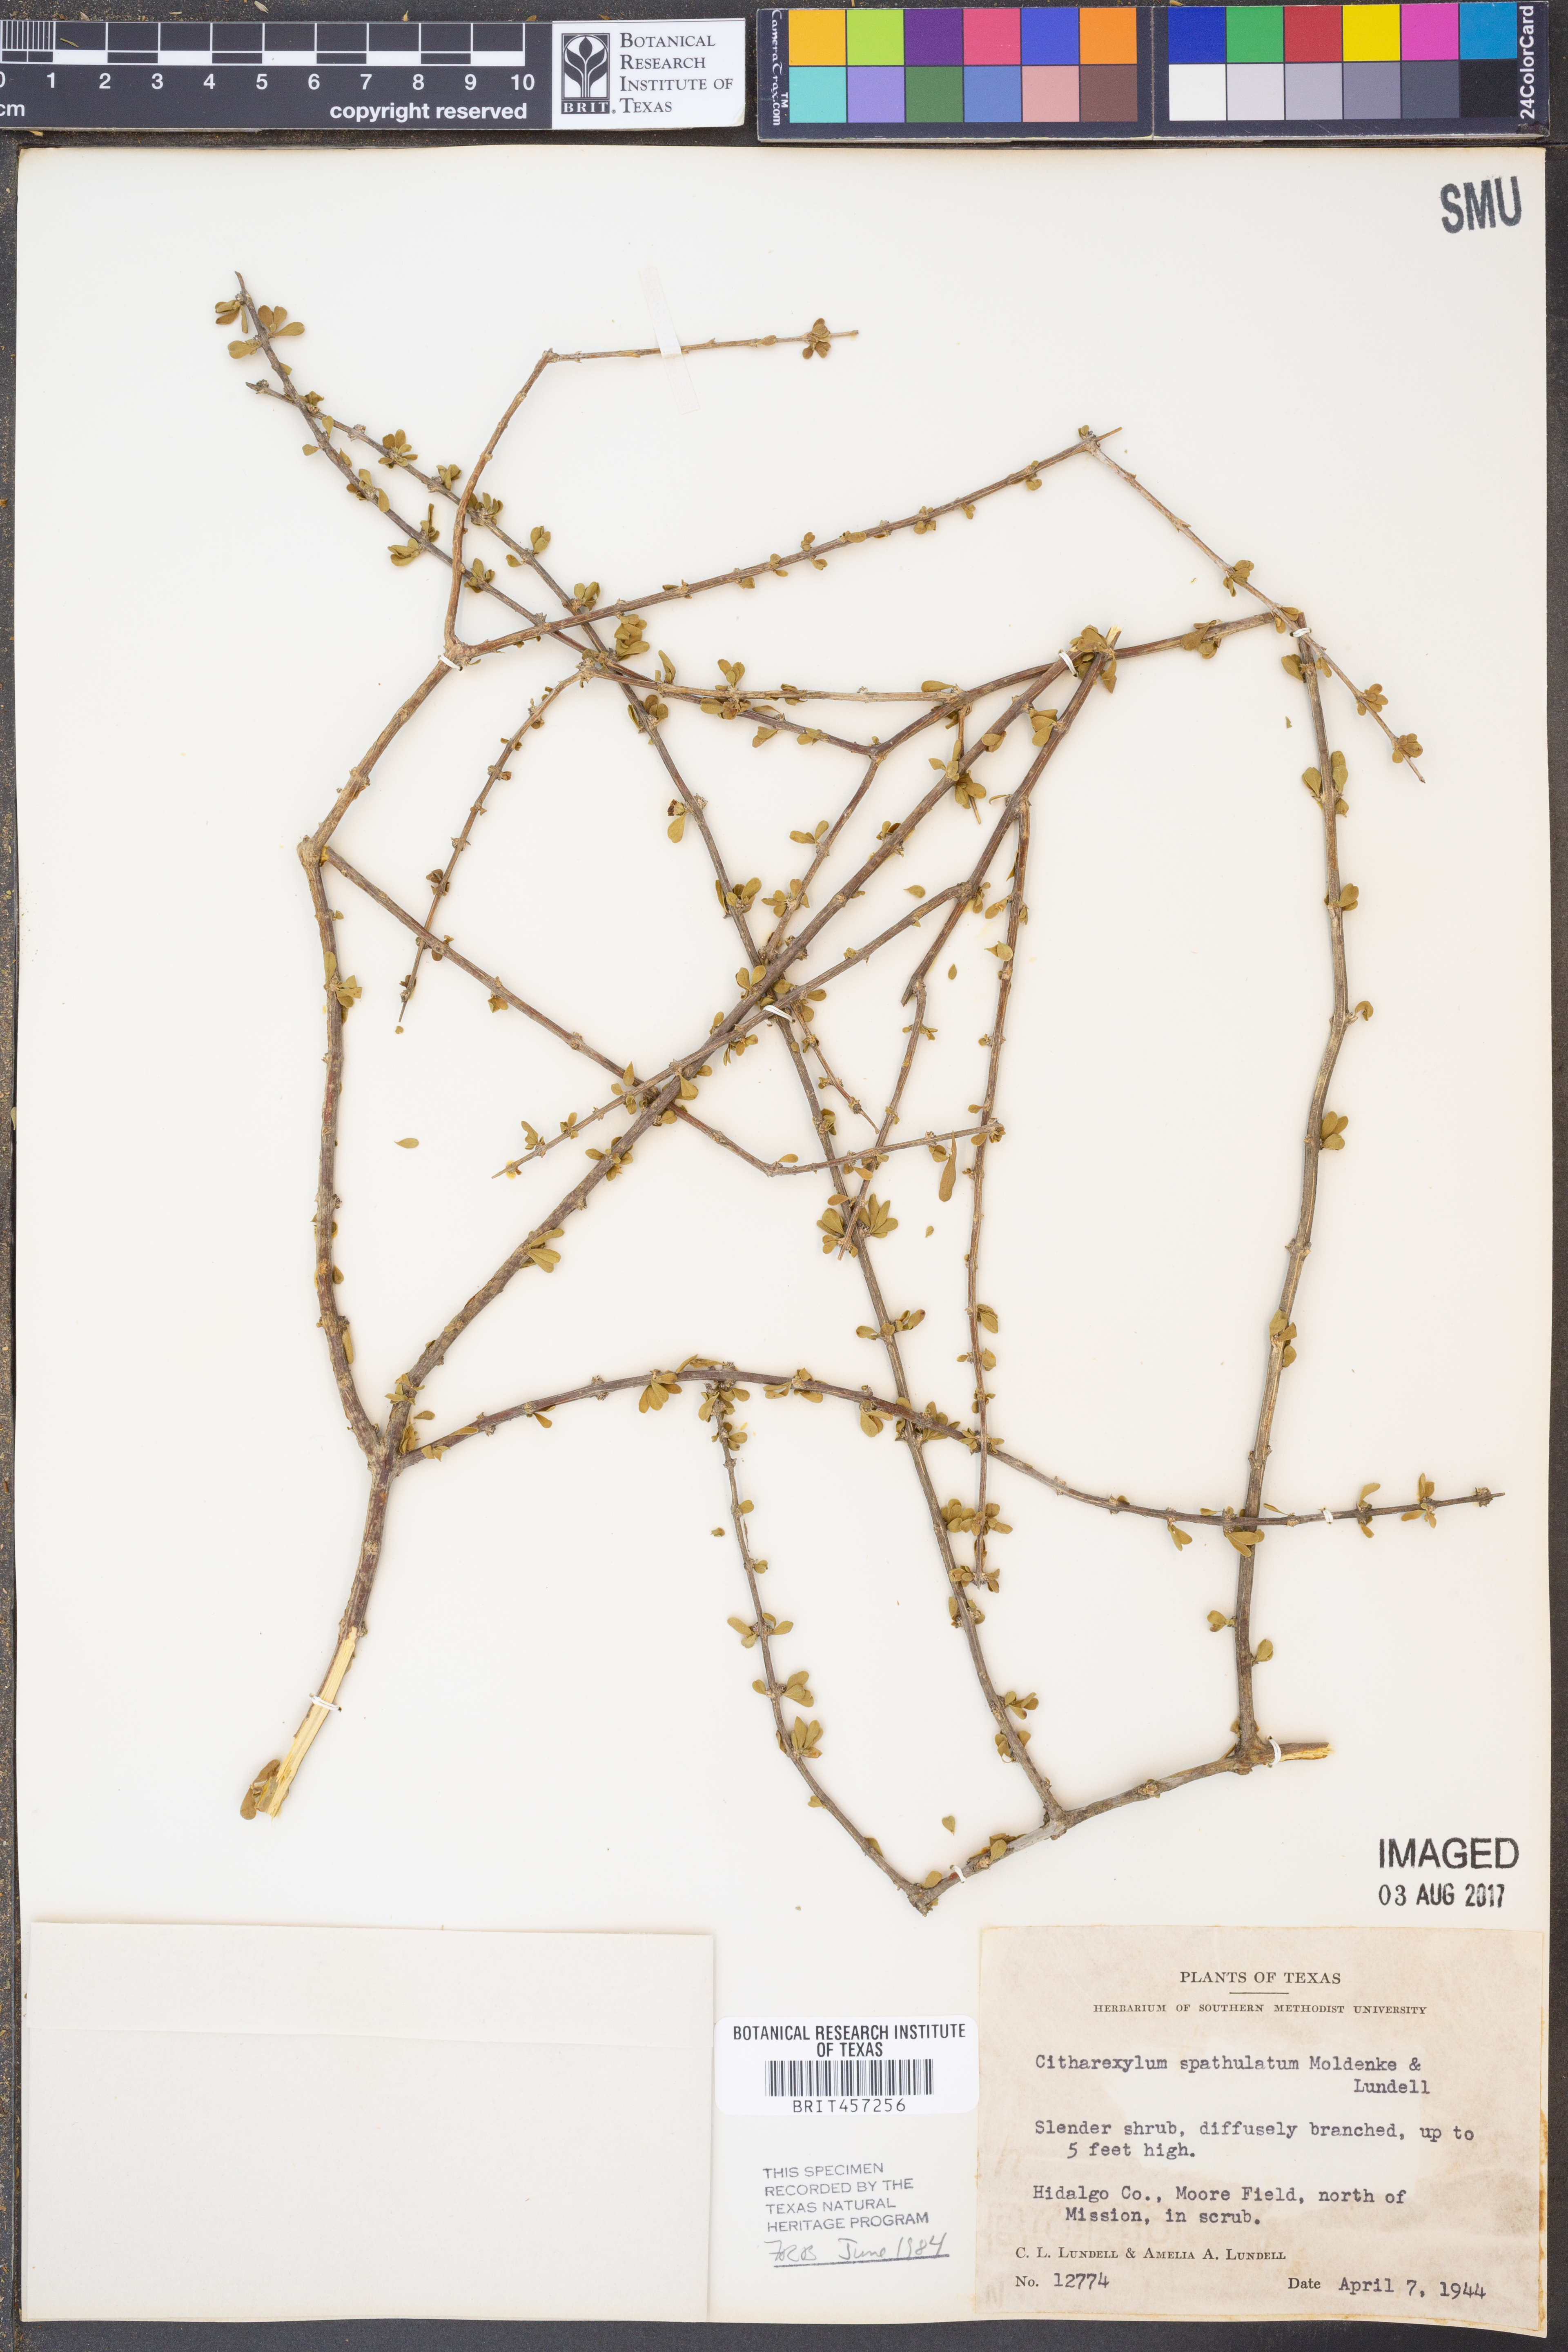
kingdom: Plantae
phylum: Tracheophyta
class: Magnoliopsida
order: Lamiales
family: Verbenaceae
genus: Citharexylum
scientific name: Citharexylum brachyanthum
